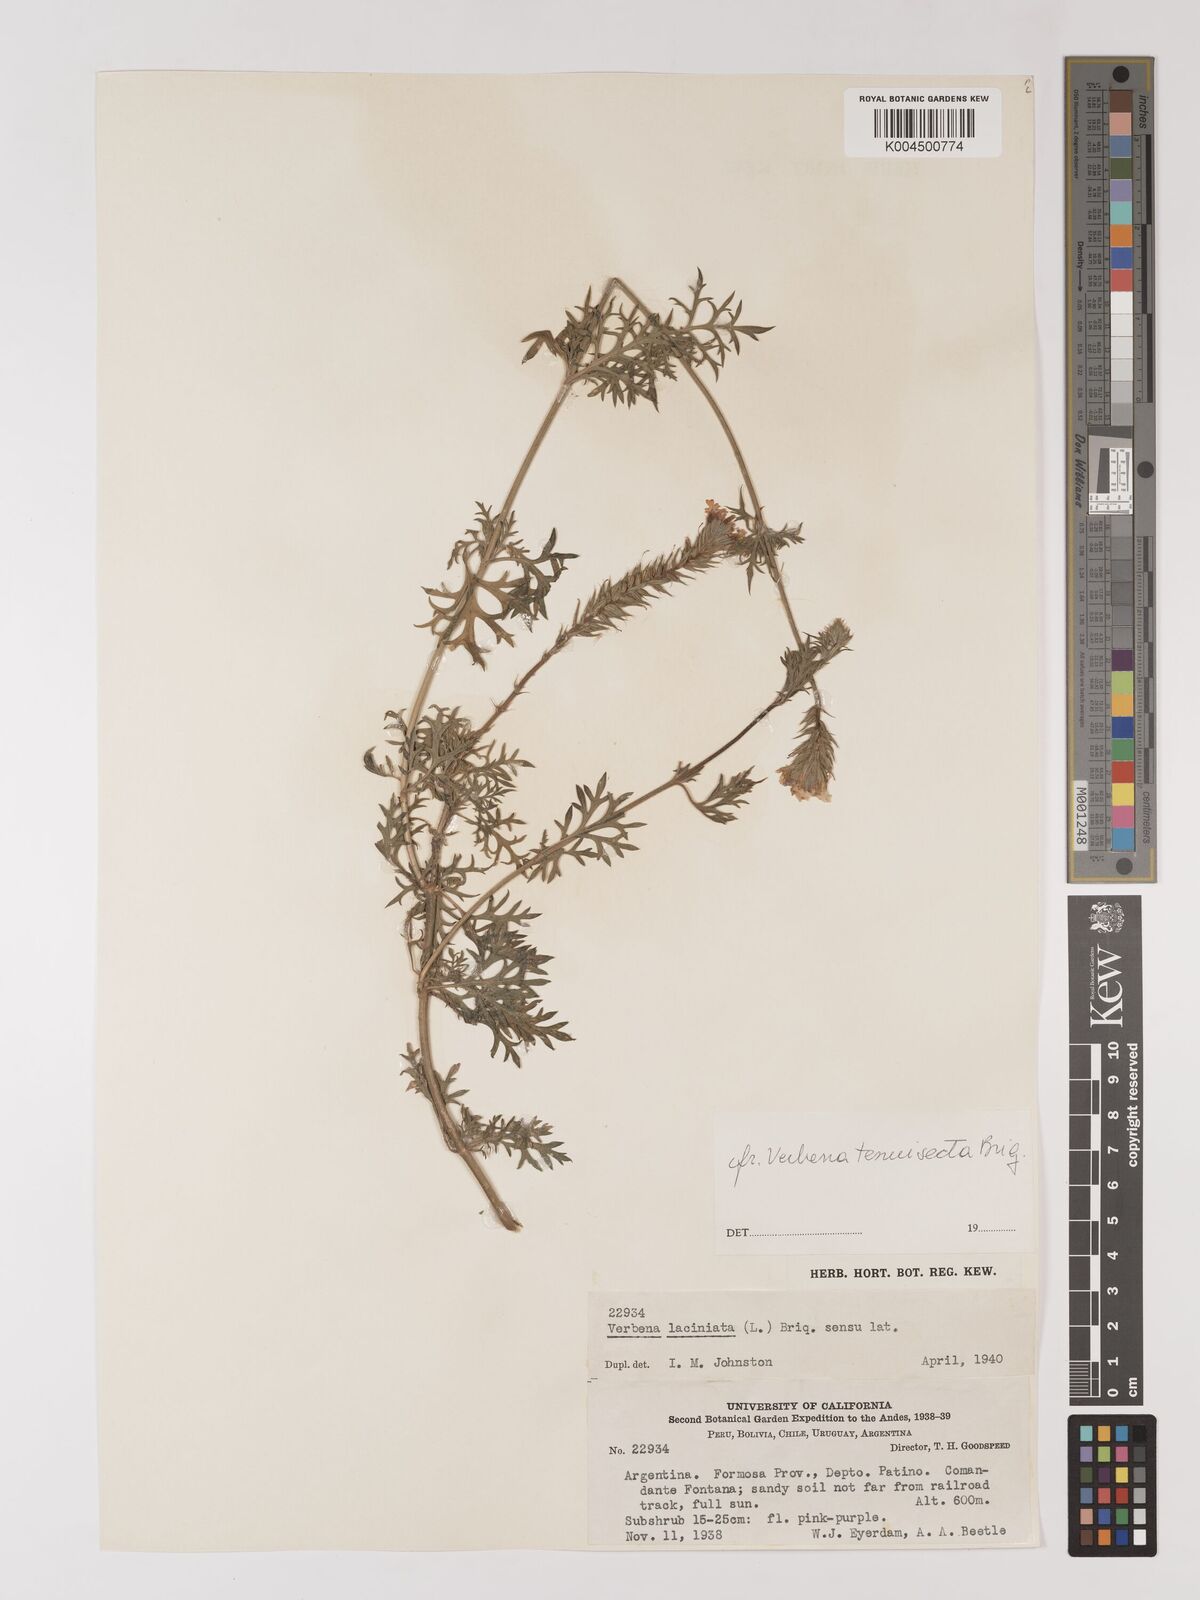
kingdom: Plantae
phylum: Tracheophyta
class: Magnoliopsida
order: Lamiales
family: Verbenaceae
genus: Verbena
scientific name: Verbena laciniata
